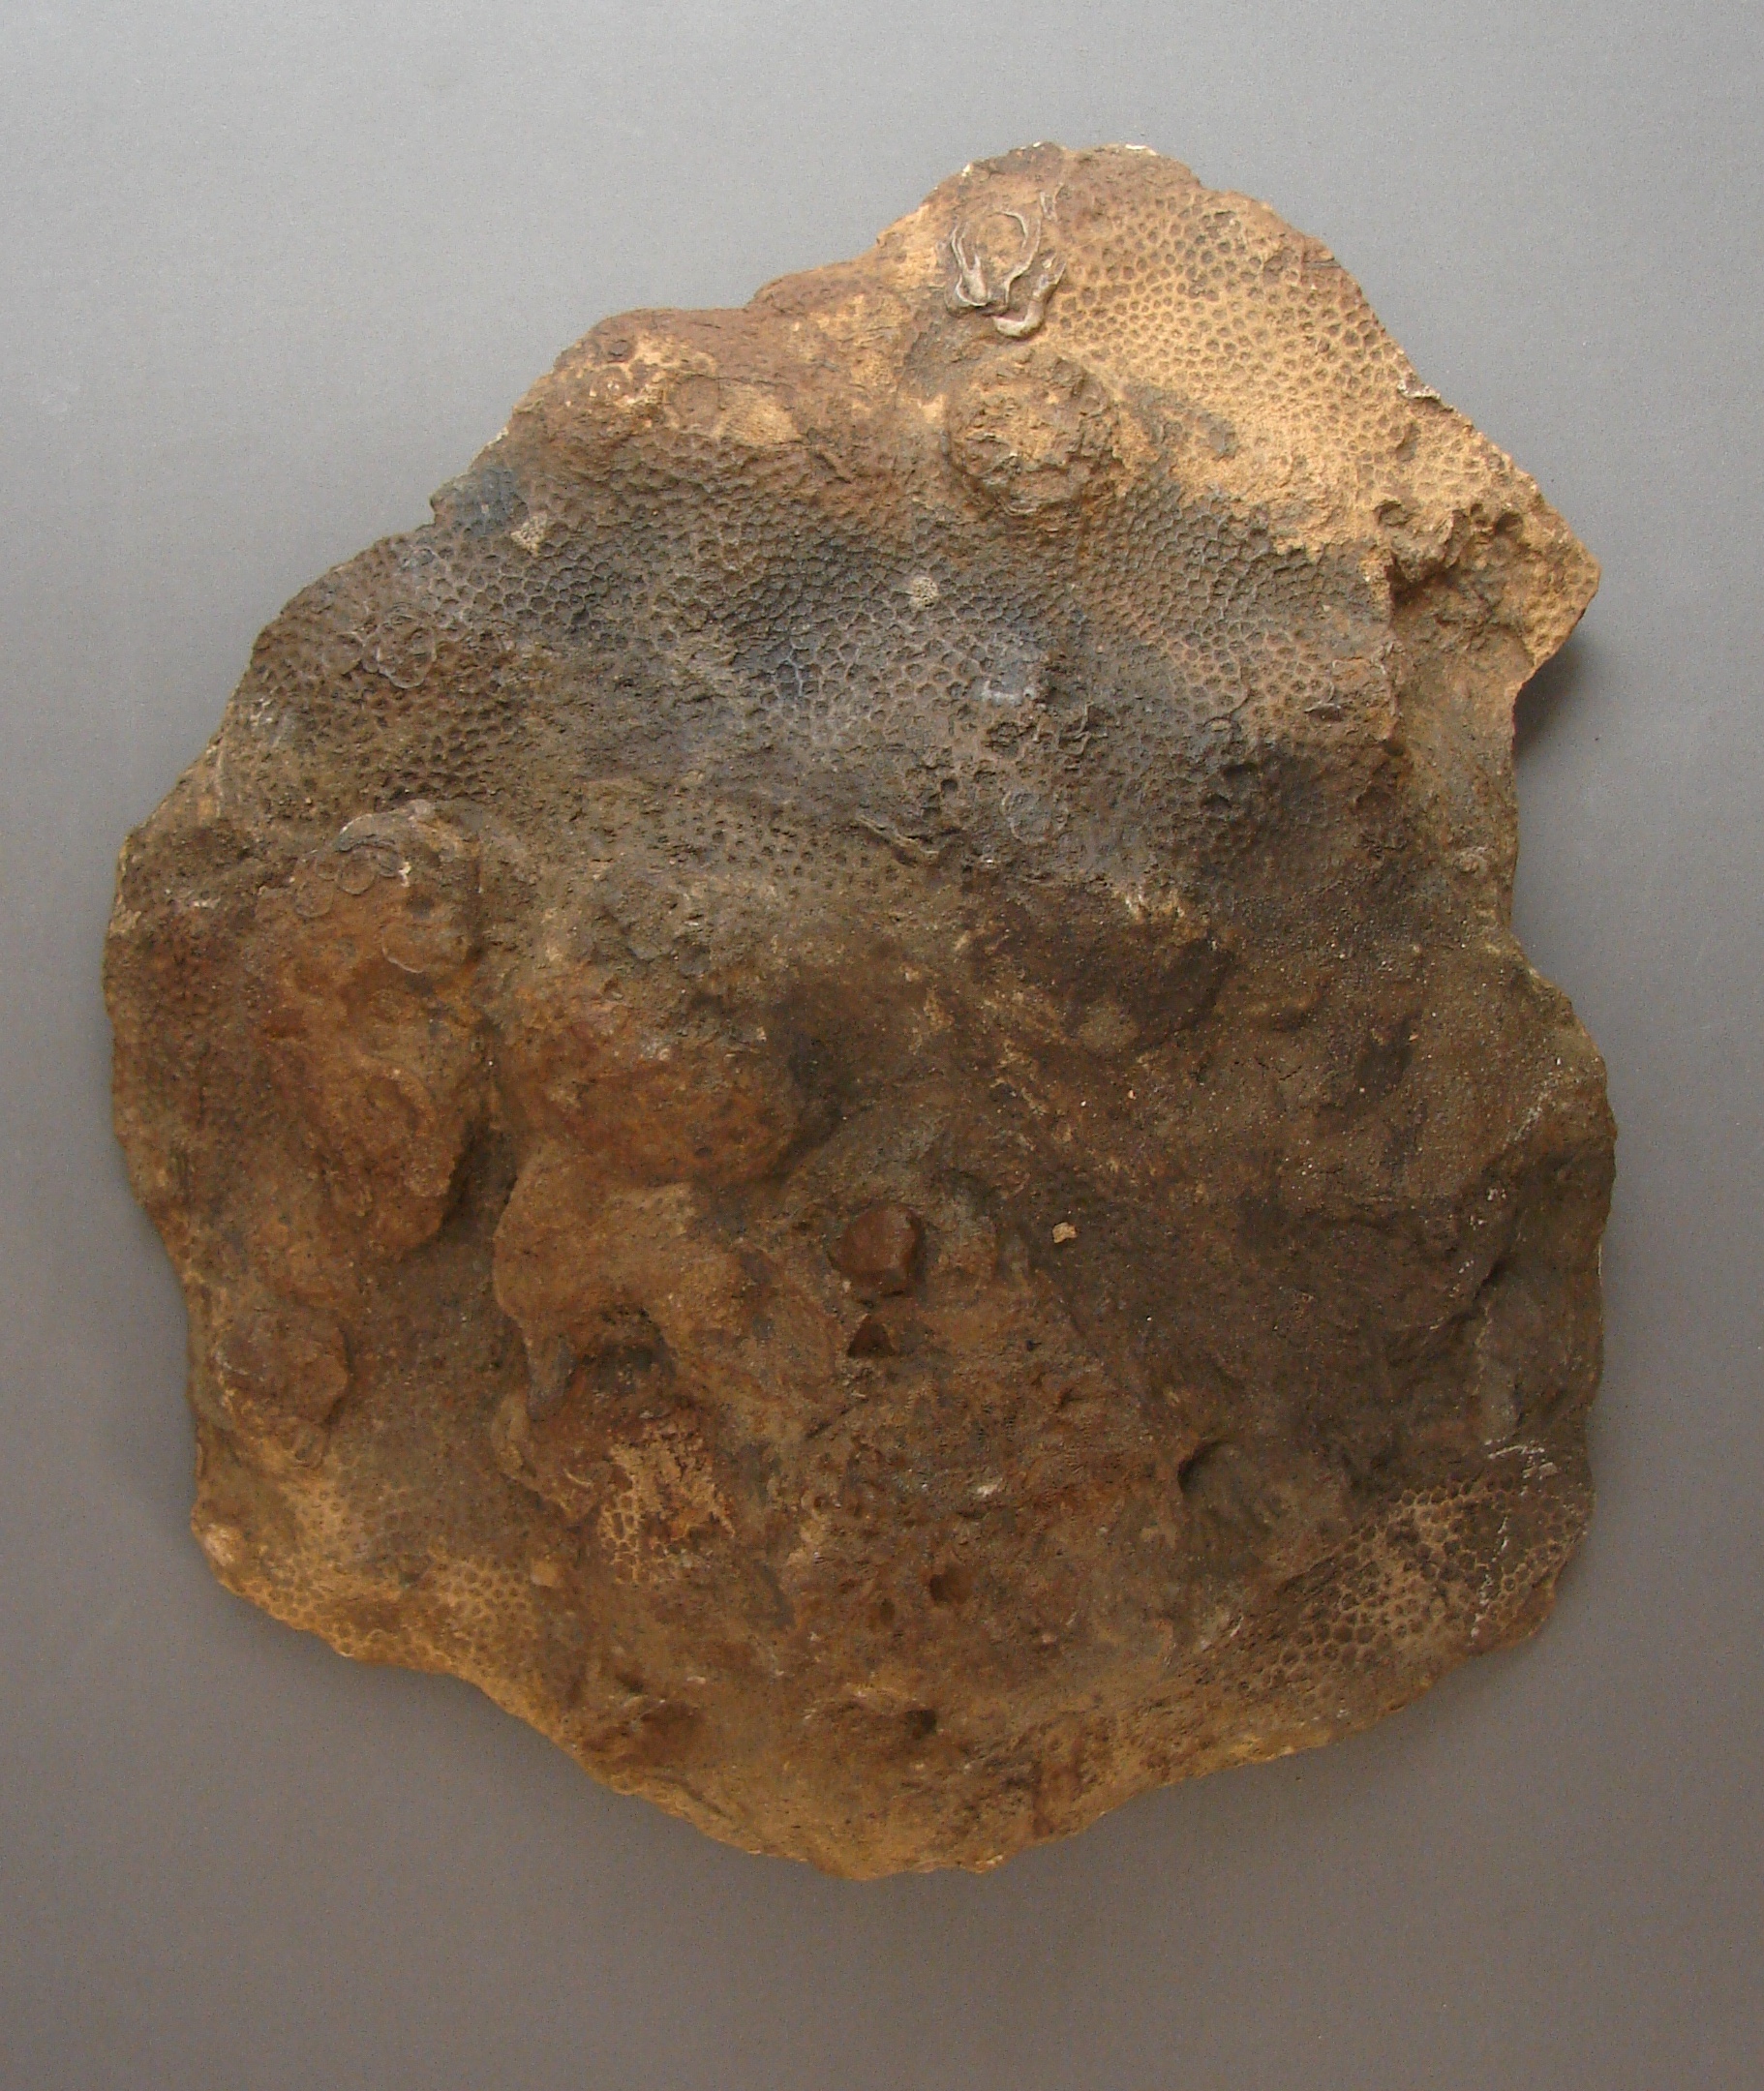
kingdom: Animalia
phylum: Cnidaria
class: Anthozoa
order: Scleractinia
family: Actinastreidae
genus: Stephanastrea
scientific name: Stephanastrea Synastrea simonneliana
